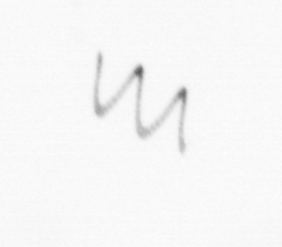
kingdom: Chromista
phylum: Ochrophyta
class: Bacillariophyceae
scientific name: Bacillariophyceae
